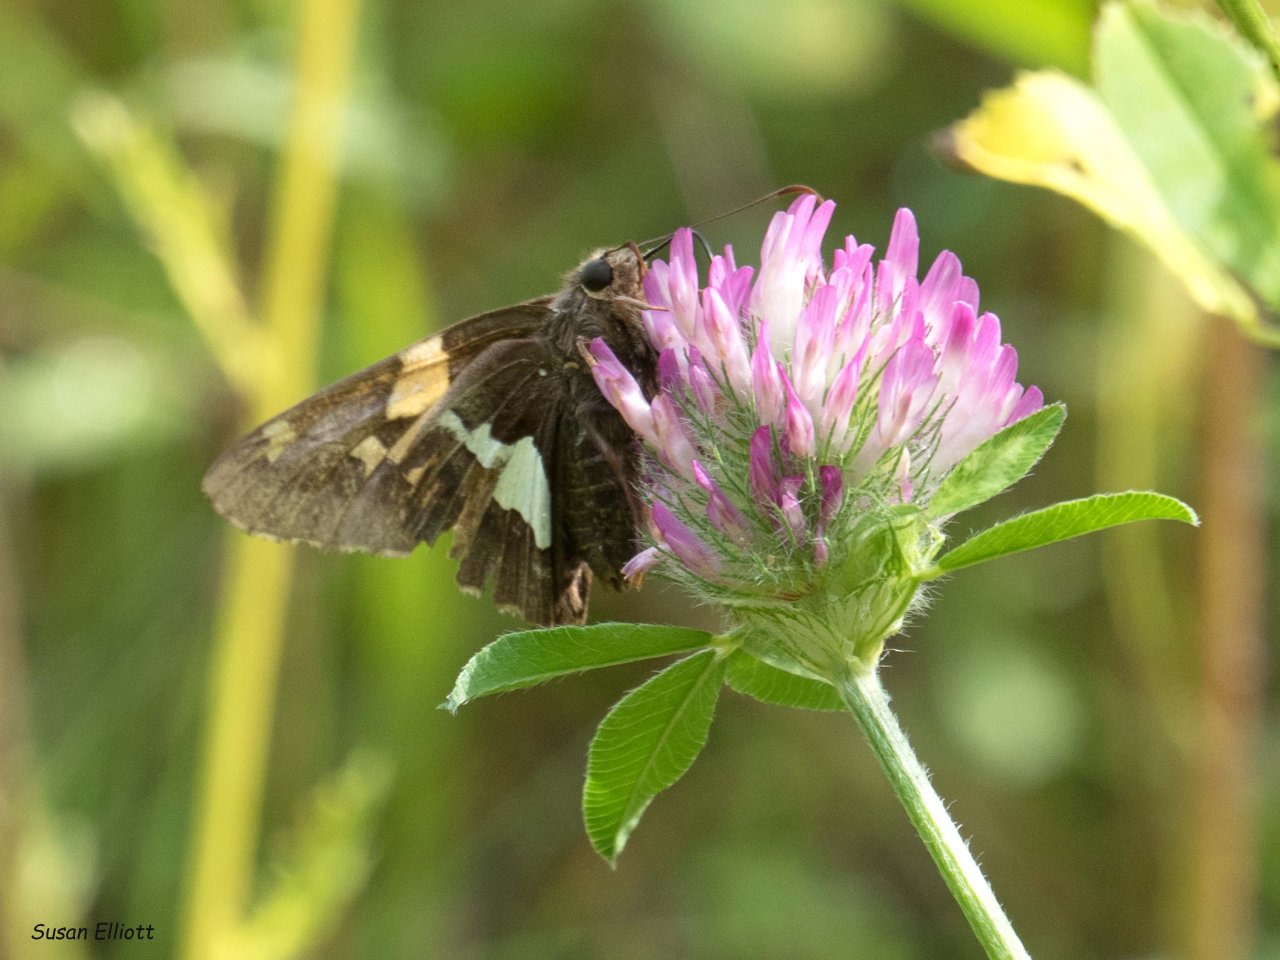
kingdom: Animalia
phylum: Arthropoda
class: Insecta
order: Lepidoptera
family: Hesperiidae
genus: Epargyreus
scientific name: Epargyreus clarus
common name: Silver-spotted Skipper
